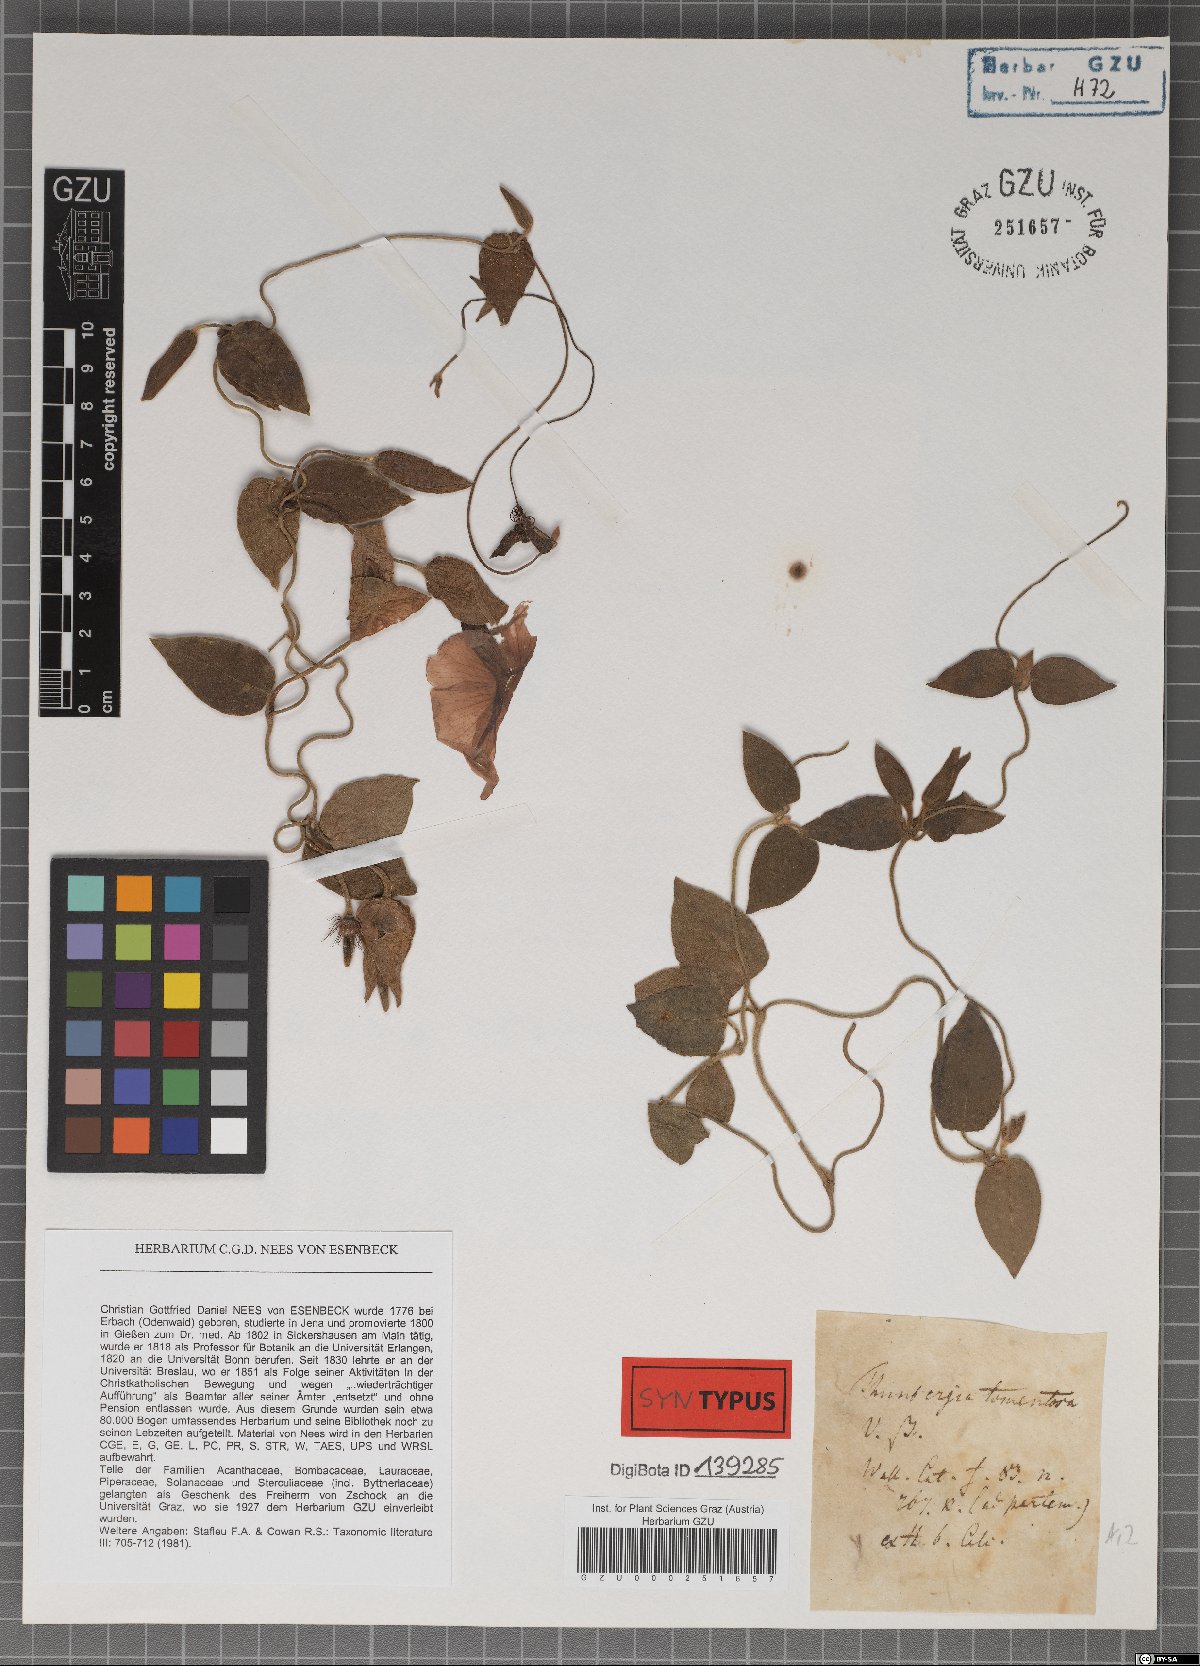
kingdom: Plantae
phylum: Tracheophyta
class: Magnoliopsida
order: Lamiales
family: Acanthaceae
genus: Thunbergia
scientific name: Thunbergia laevis
